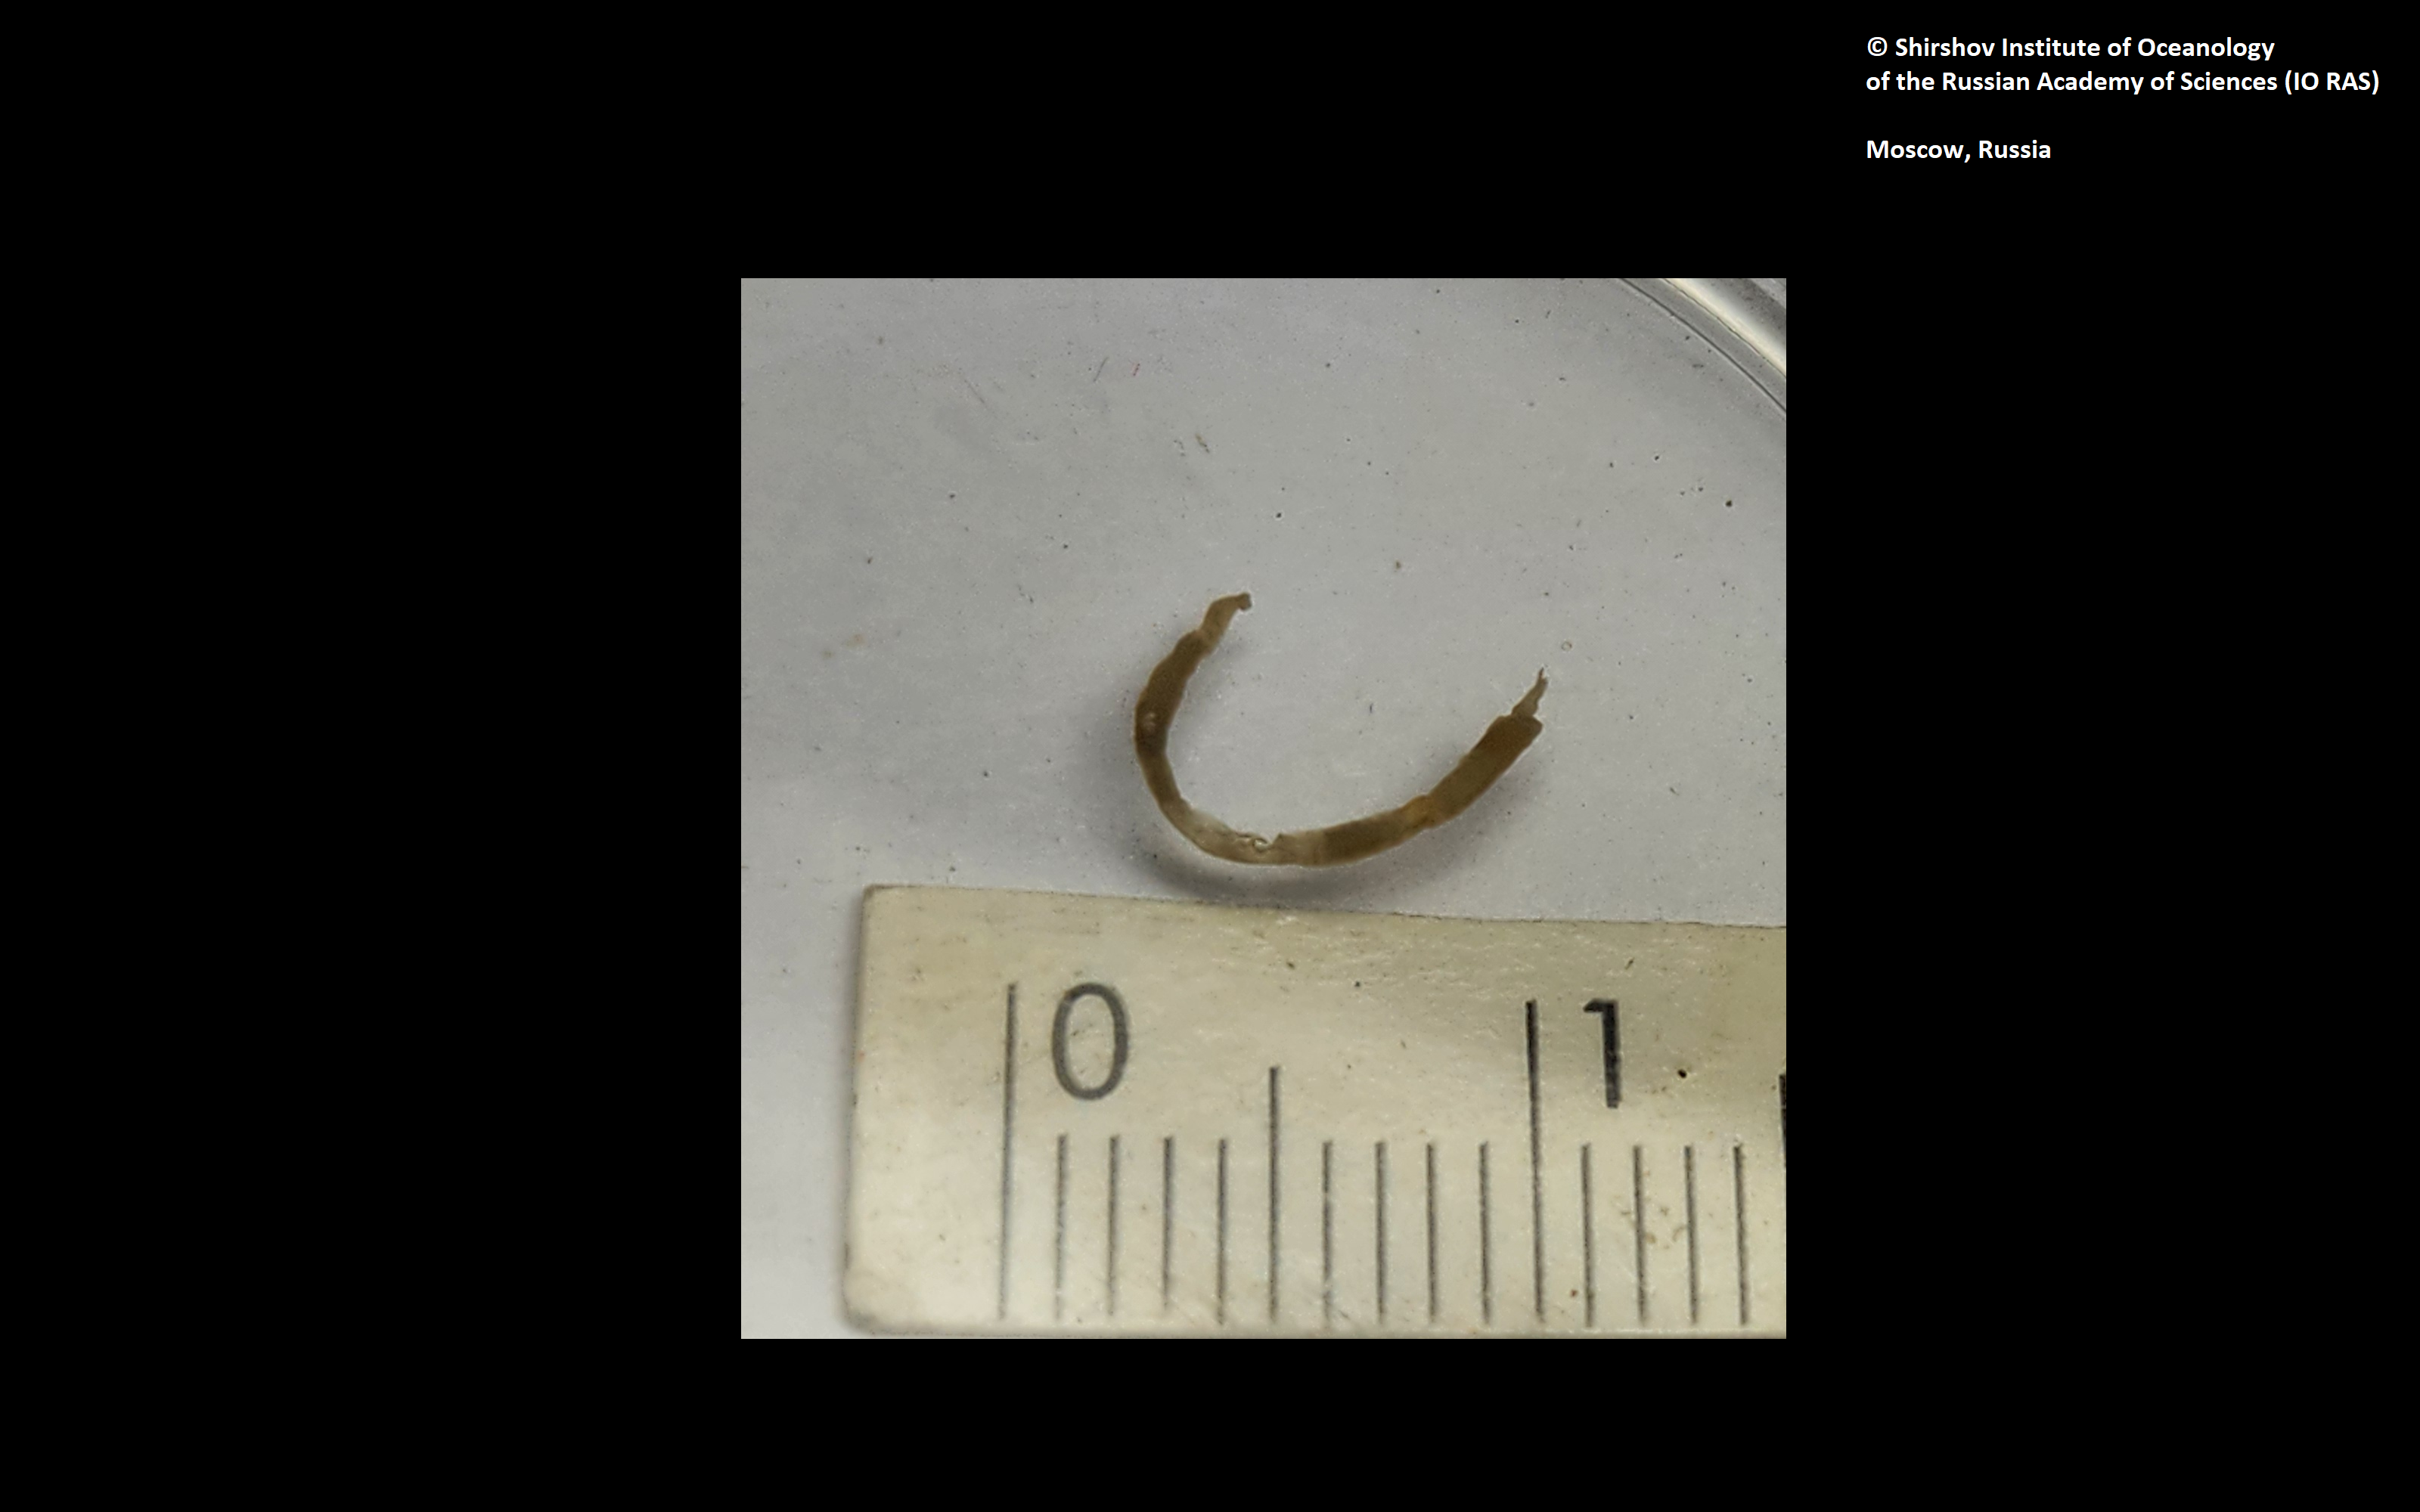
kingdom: Animalia
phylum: Annelida
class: Polychaeta
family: Melinnidae
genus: Melinna
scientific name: Melinna collare
